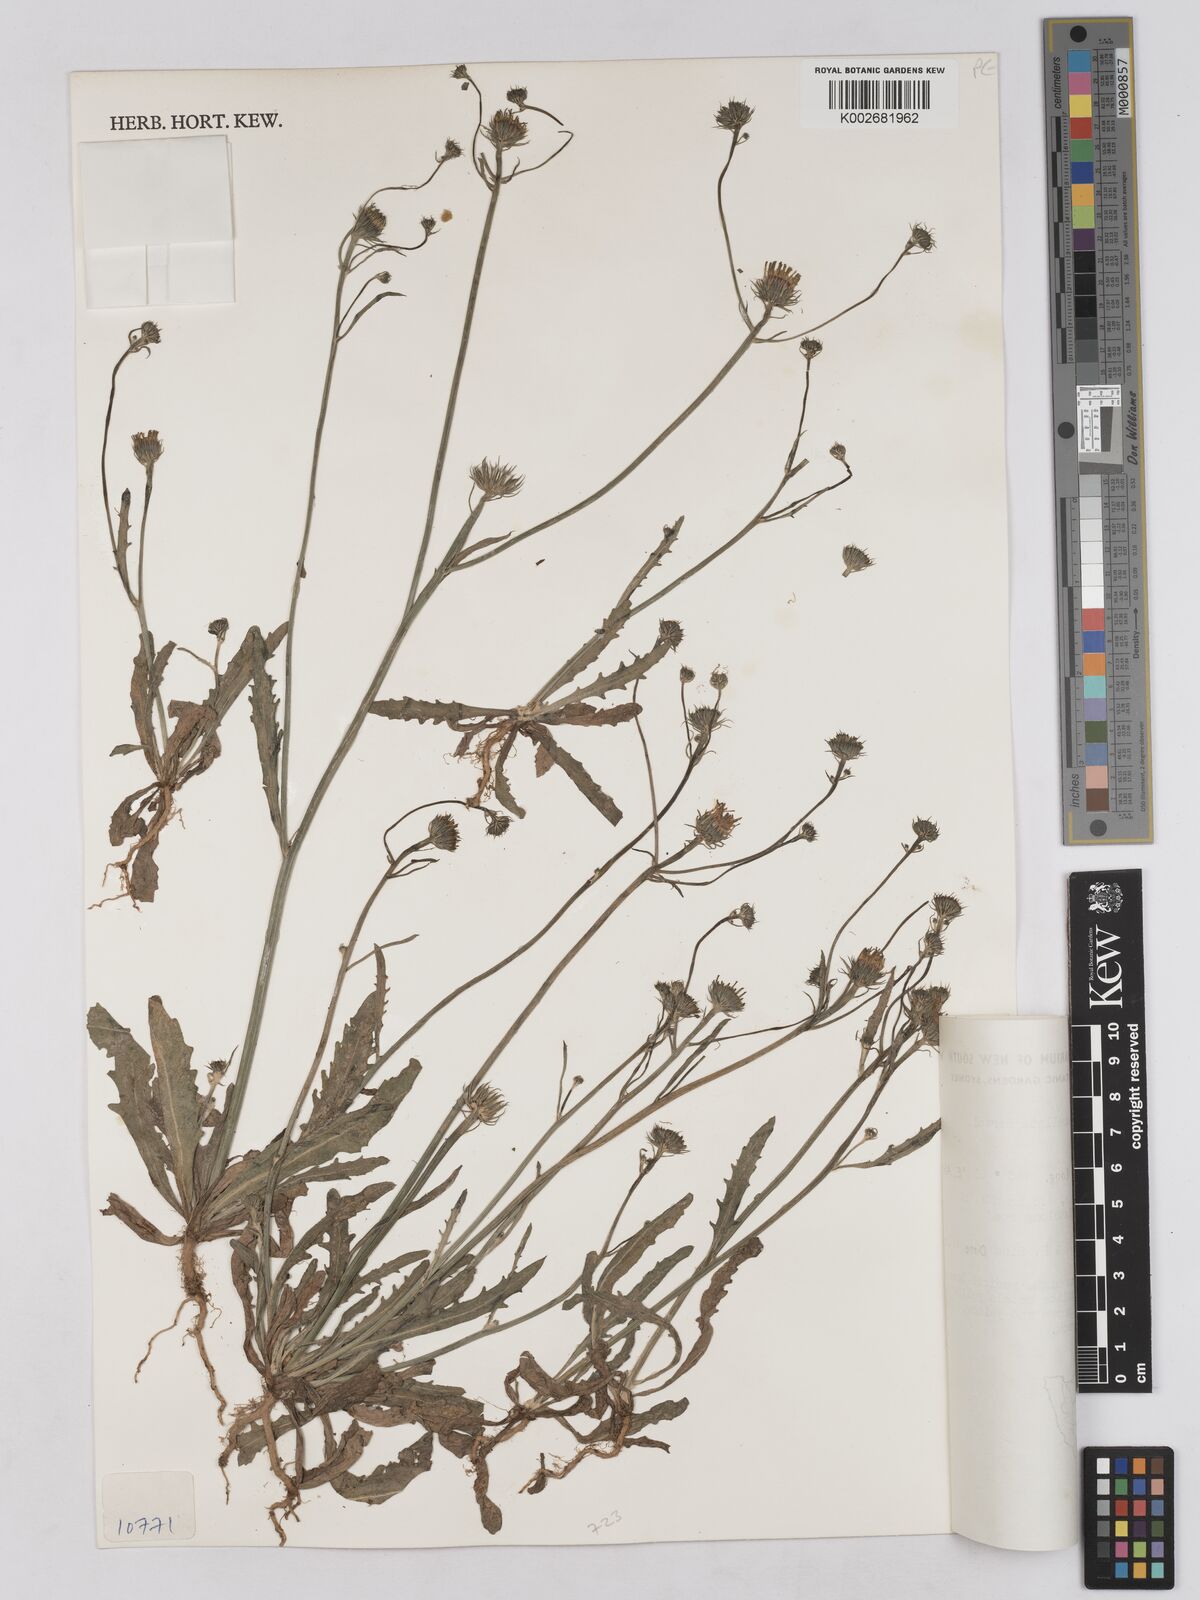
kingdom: Plantae
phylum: Tracheophyta
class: Magnoliopsida
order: Asterales
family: Asteraceae
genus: Tolpis
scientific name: Tolpis umbellata
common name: Yellow hawkweed
